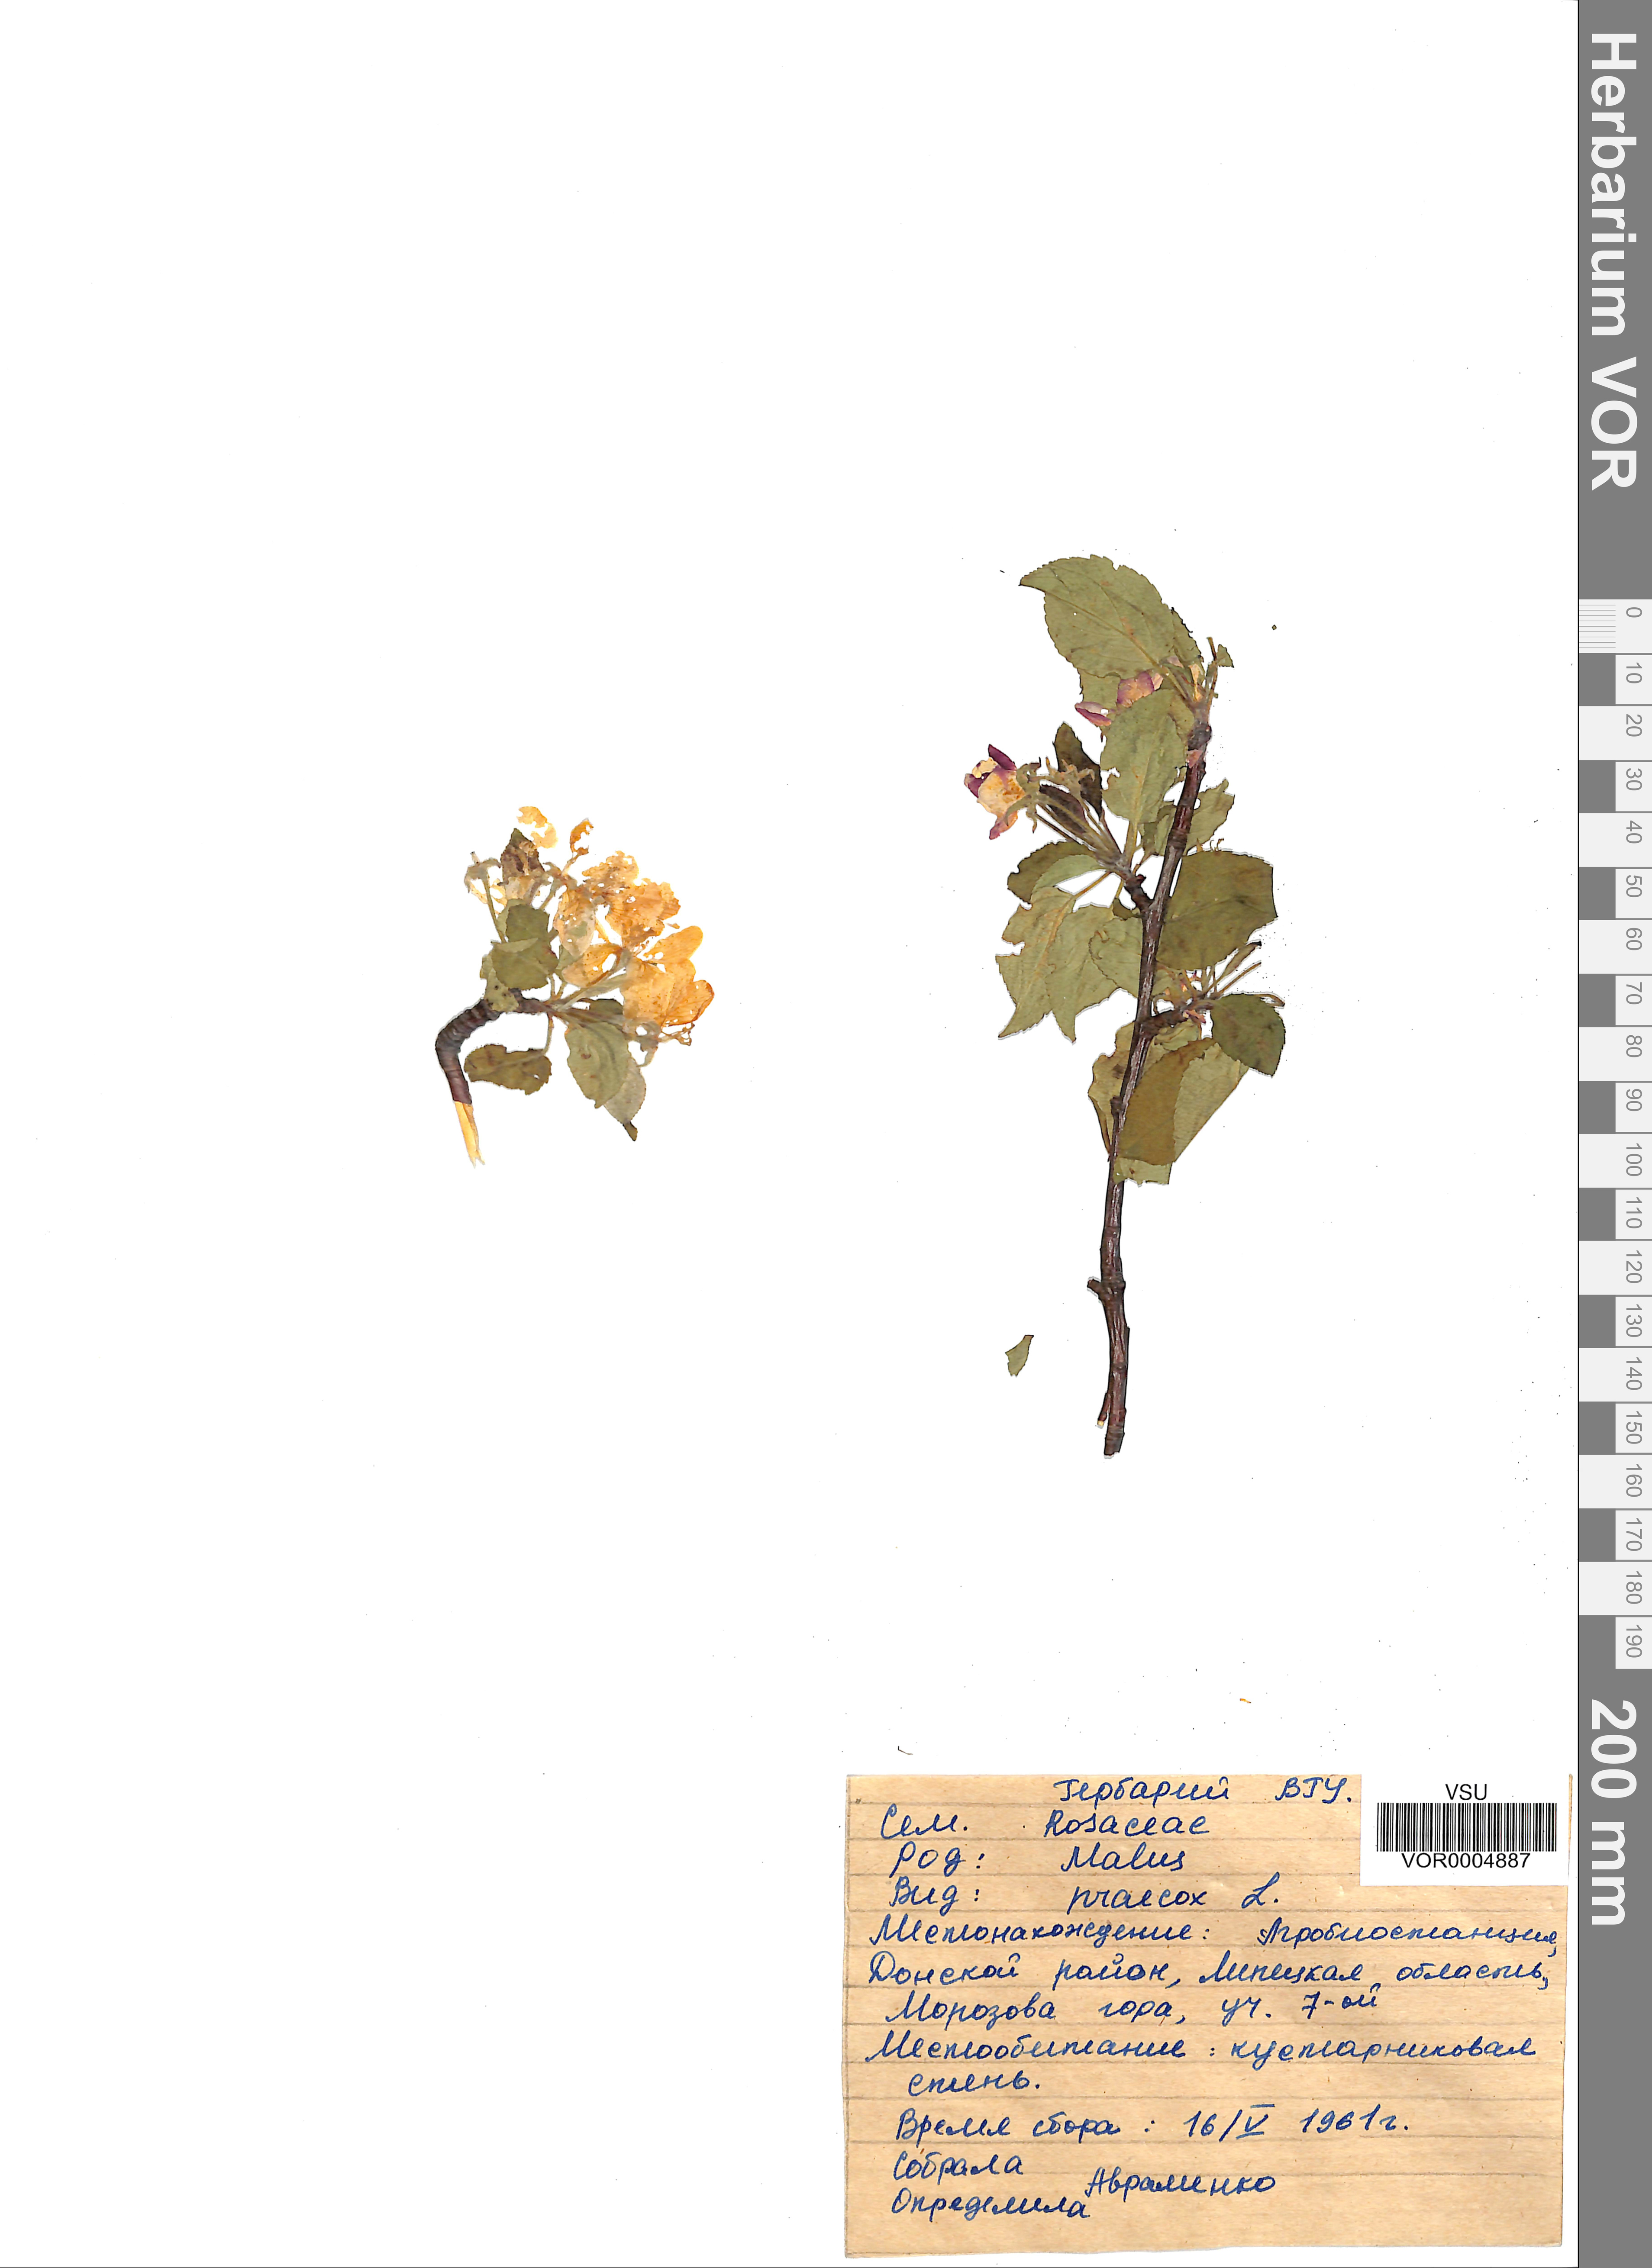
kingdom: Plantae
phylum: Tracheophyta
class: Magnoliopsida
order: Rosales
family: Rosaceae
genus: Malus
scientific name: Malus domestica
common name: Apple
